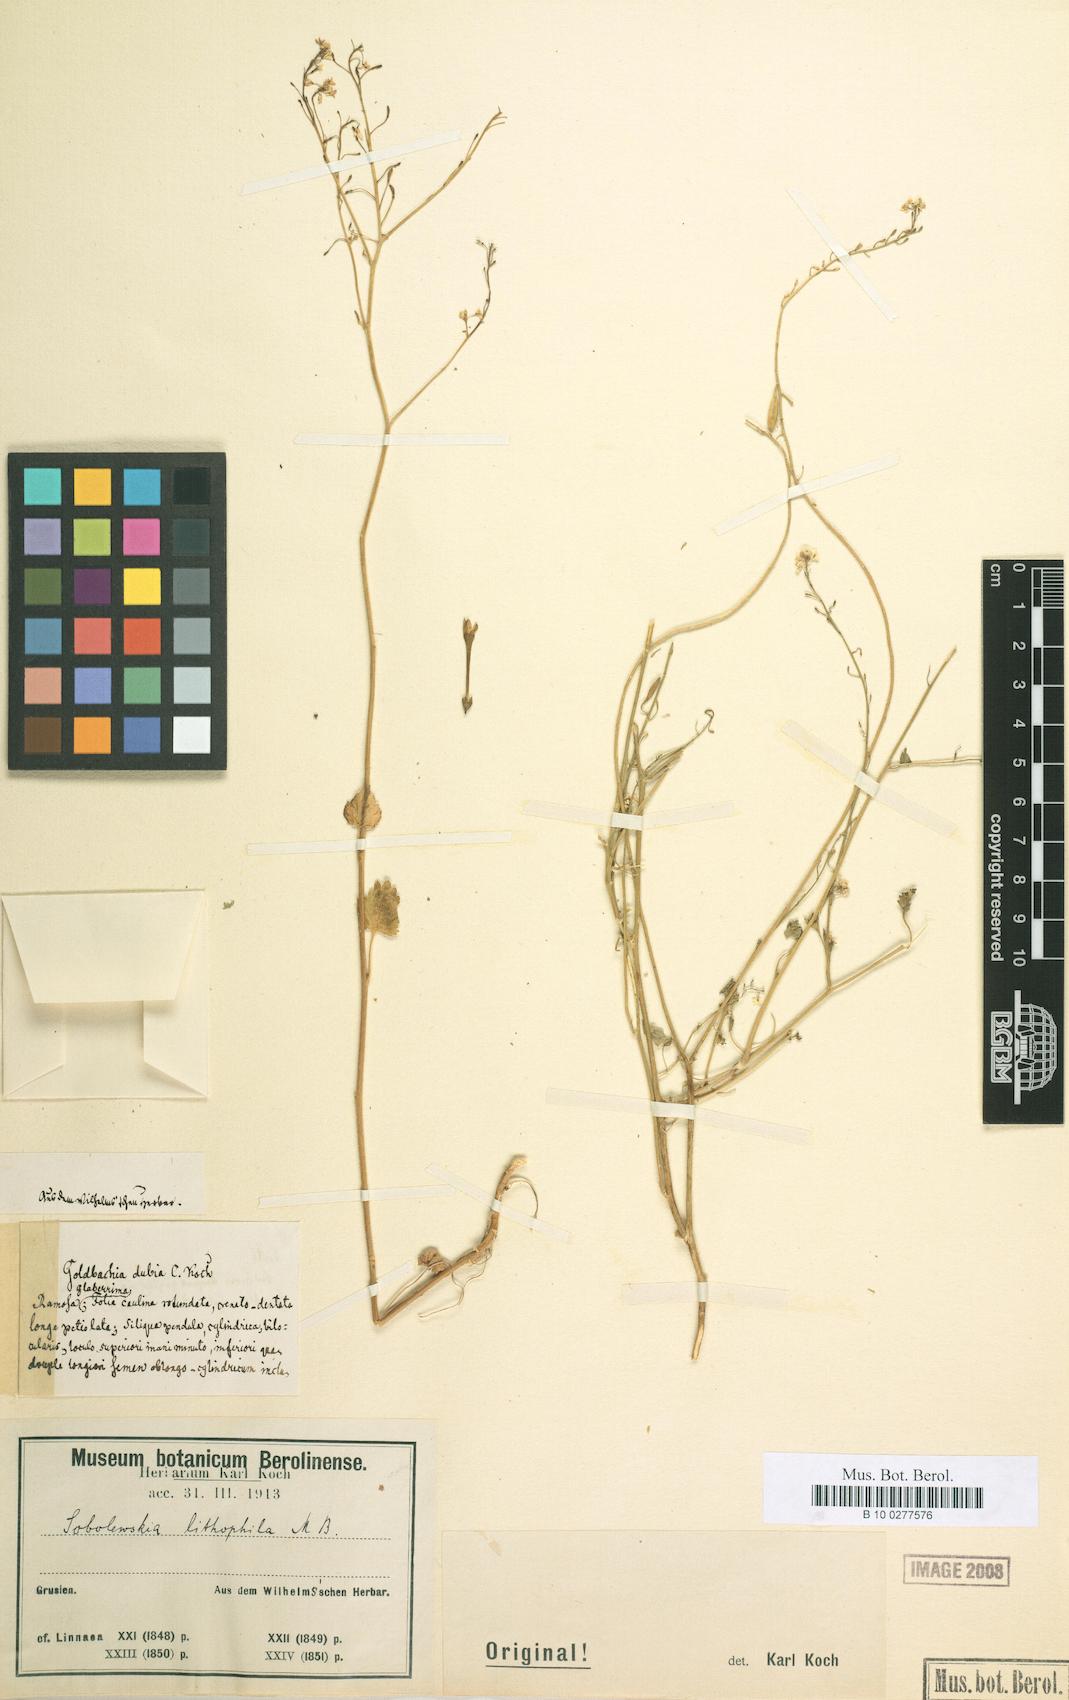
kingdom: Plantae
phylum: Tracheophyta
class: Magnoliopsida
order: Brassicales
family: Brassicaceae
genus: Sobolewskia
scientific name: Sobolewskia sibirica
